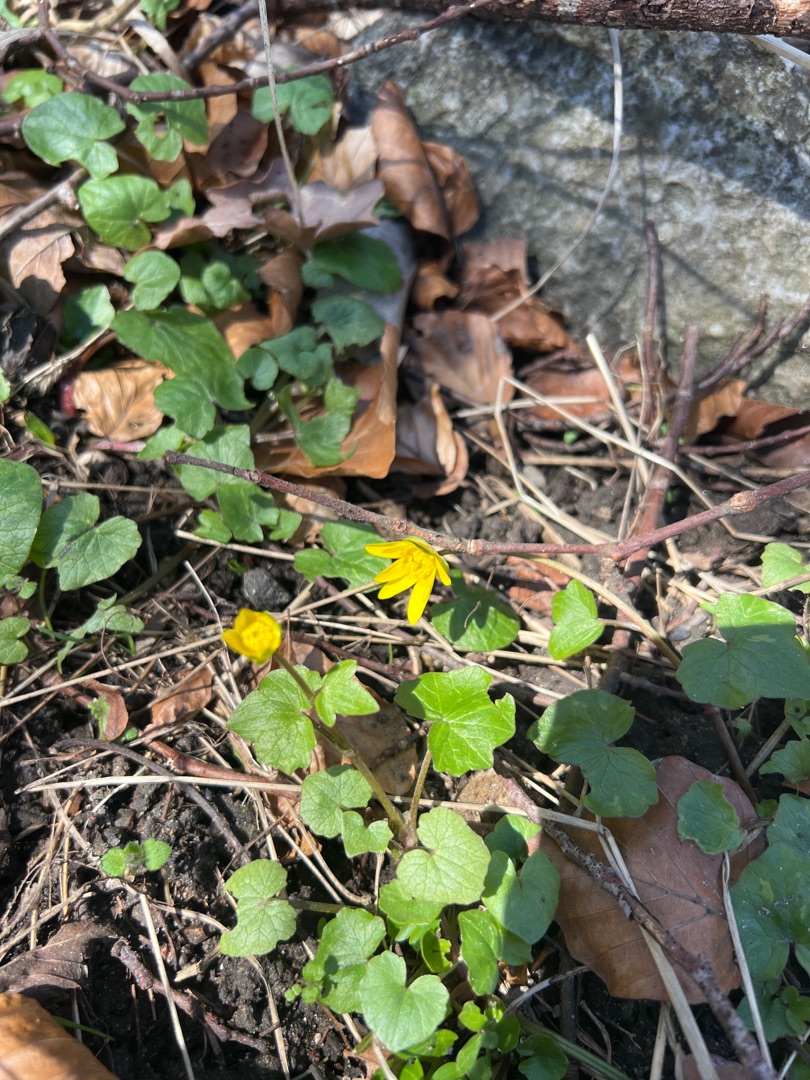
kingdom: Plantae
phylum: Tracheophyta
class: Magnoliopsida
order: Ranunculales
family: Ranunculaceae
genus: Ficaria
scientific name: Ficaria verna
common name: Almindelig vorterod
